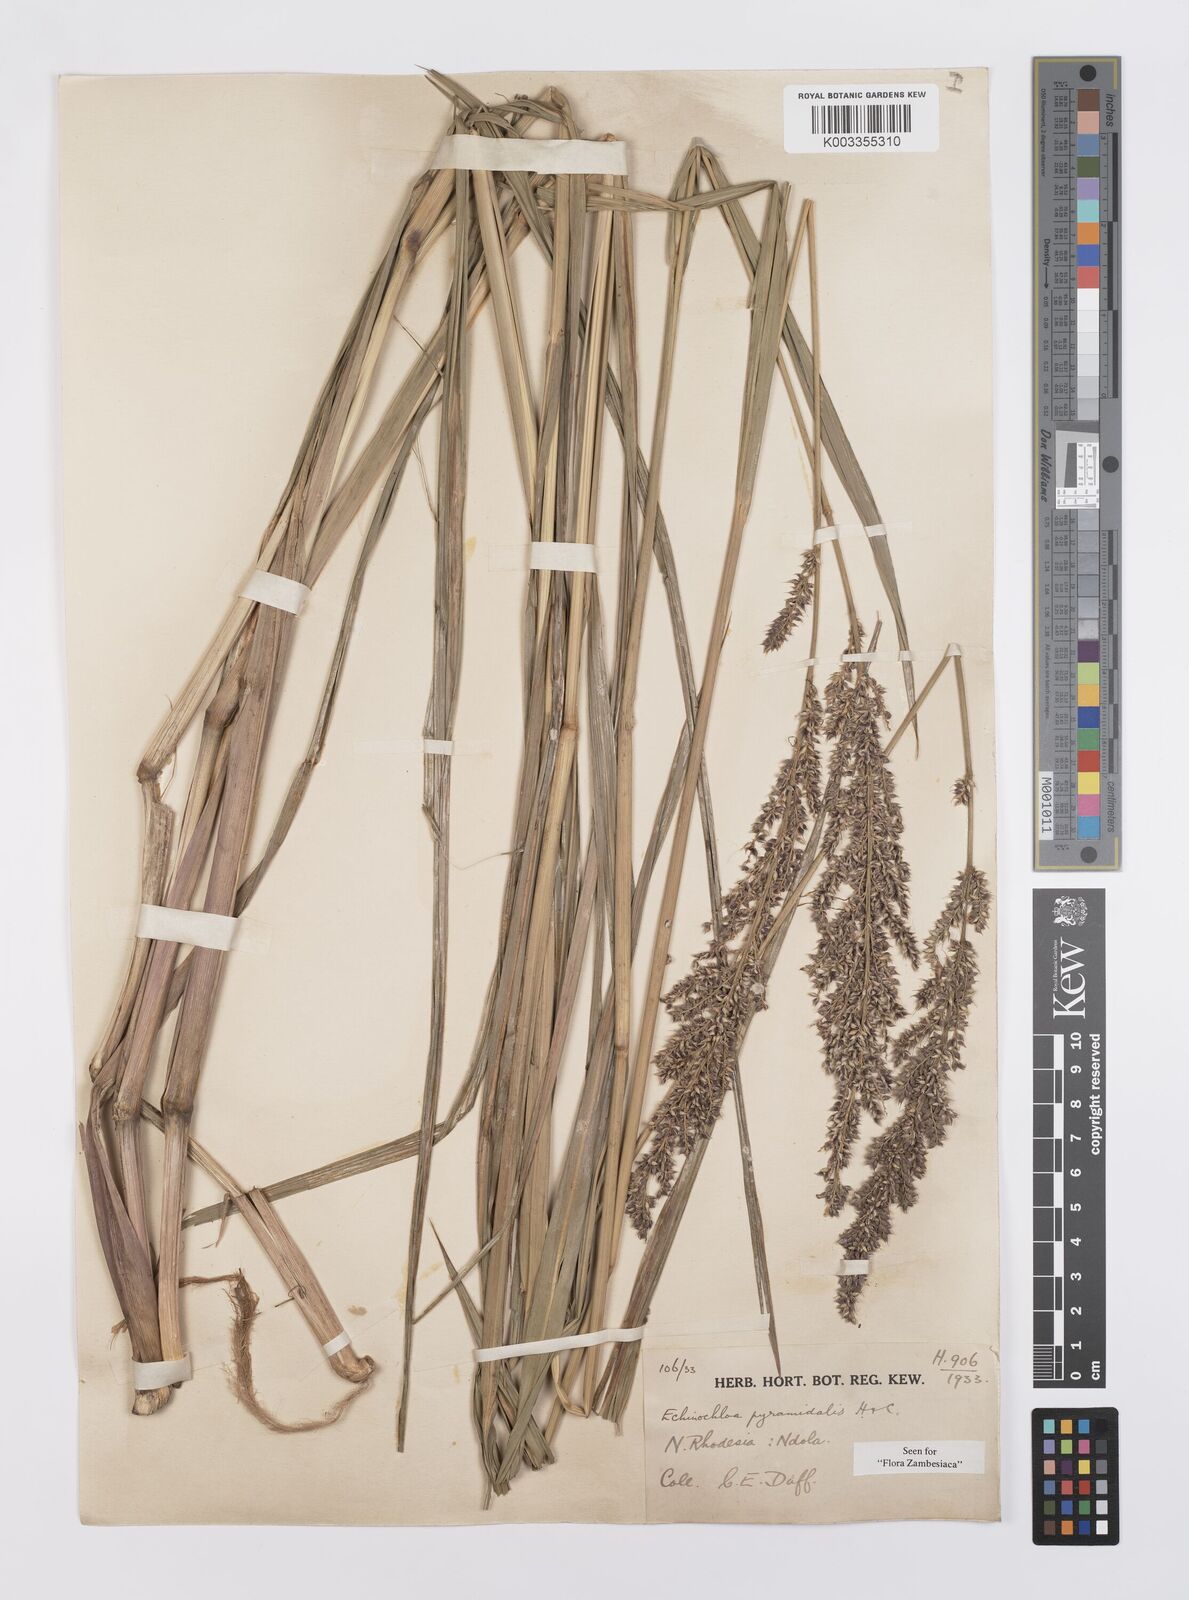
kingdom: Plantae
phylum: Tracheophyta
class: Liliopsida
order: Poales
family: Poaceae
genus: Echinochloa
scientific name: Echinochloa pyramidalis
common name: Antelope grass
